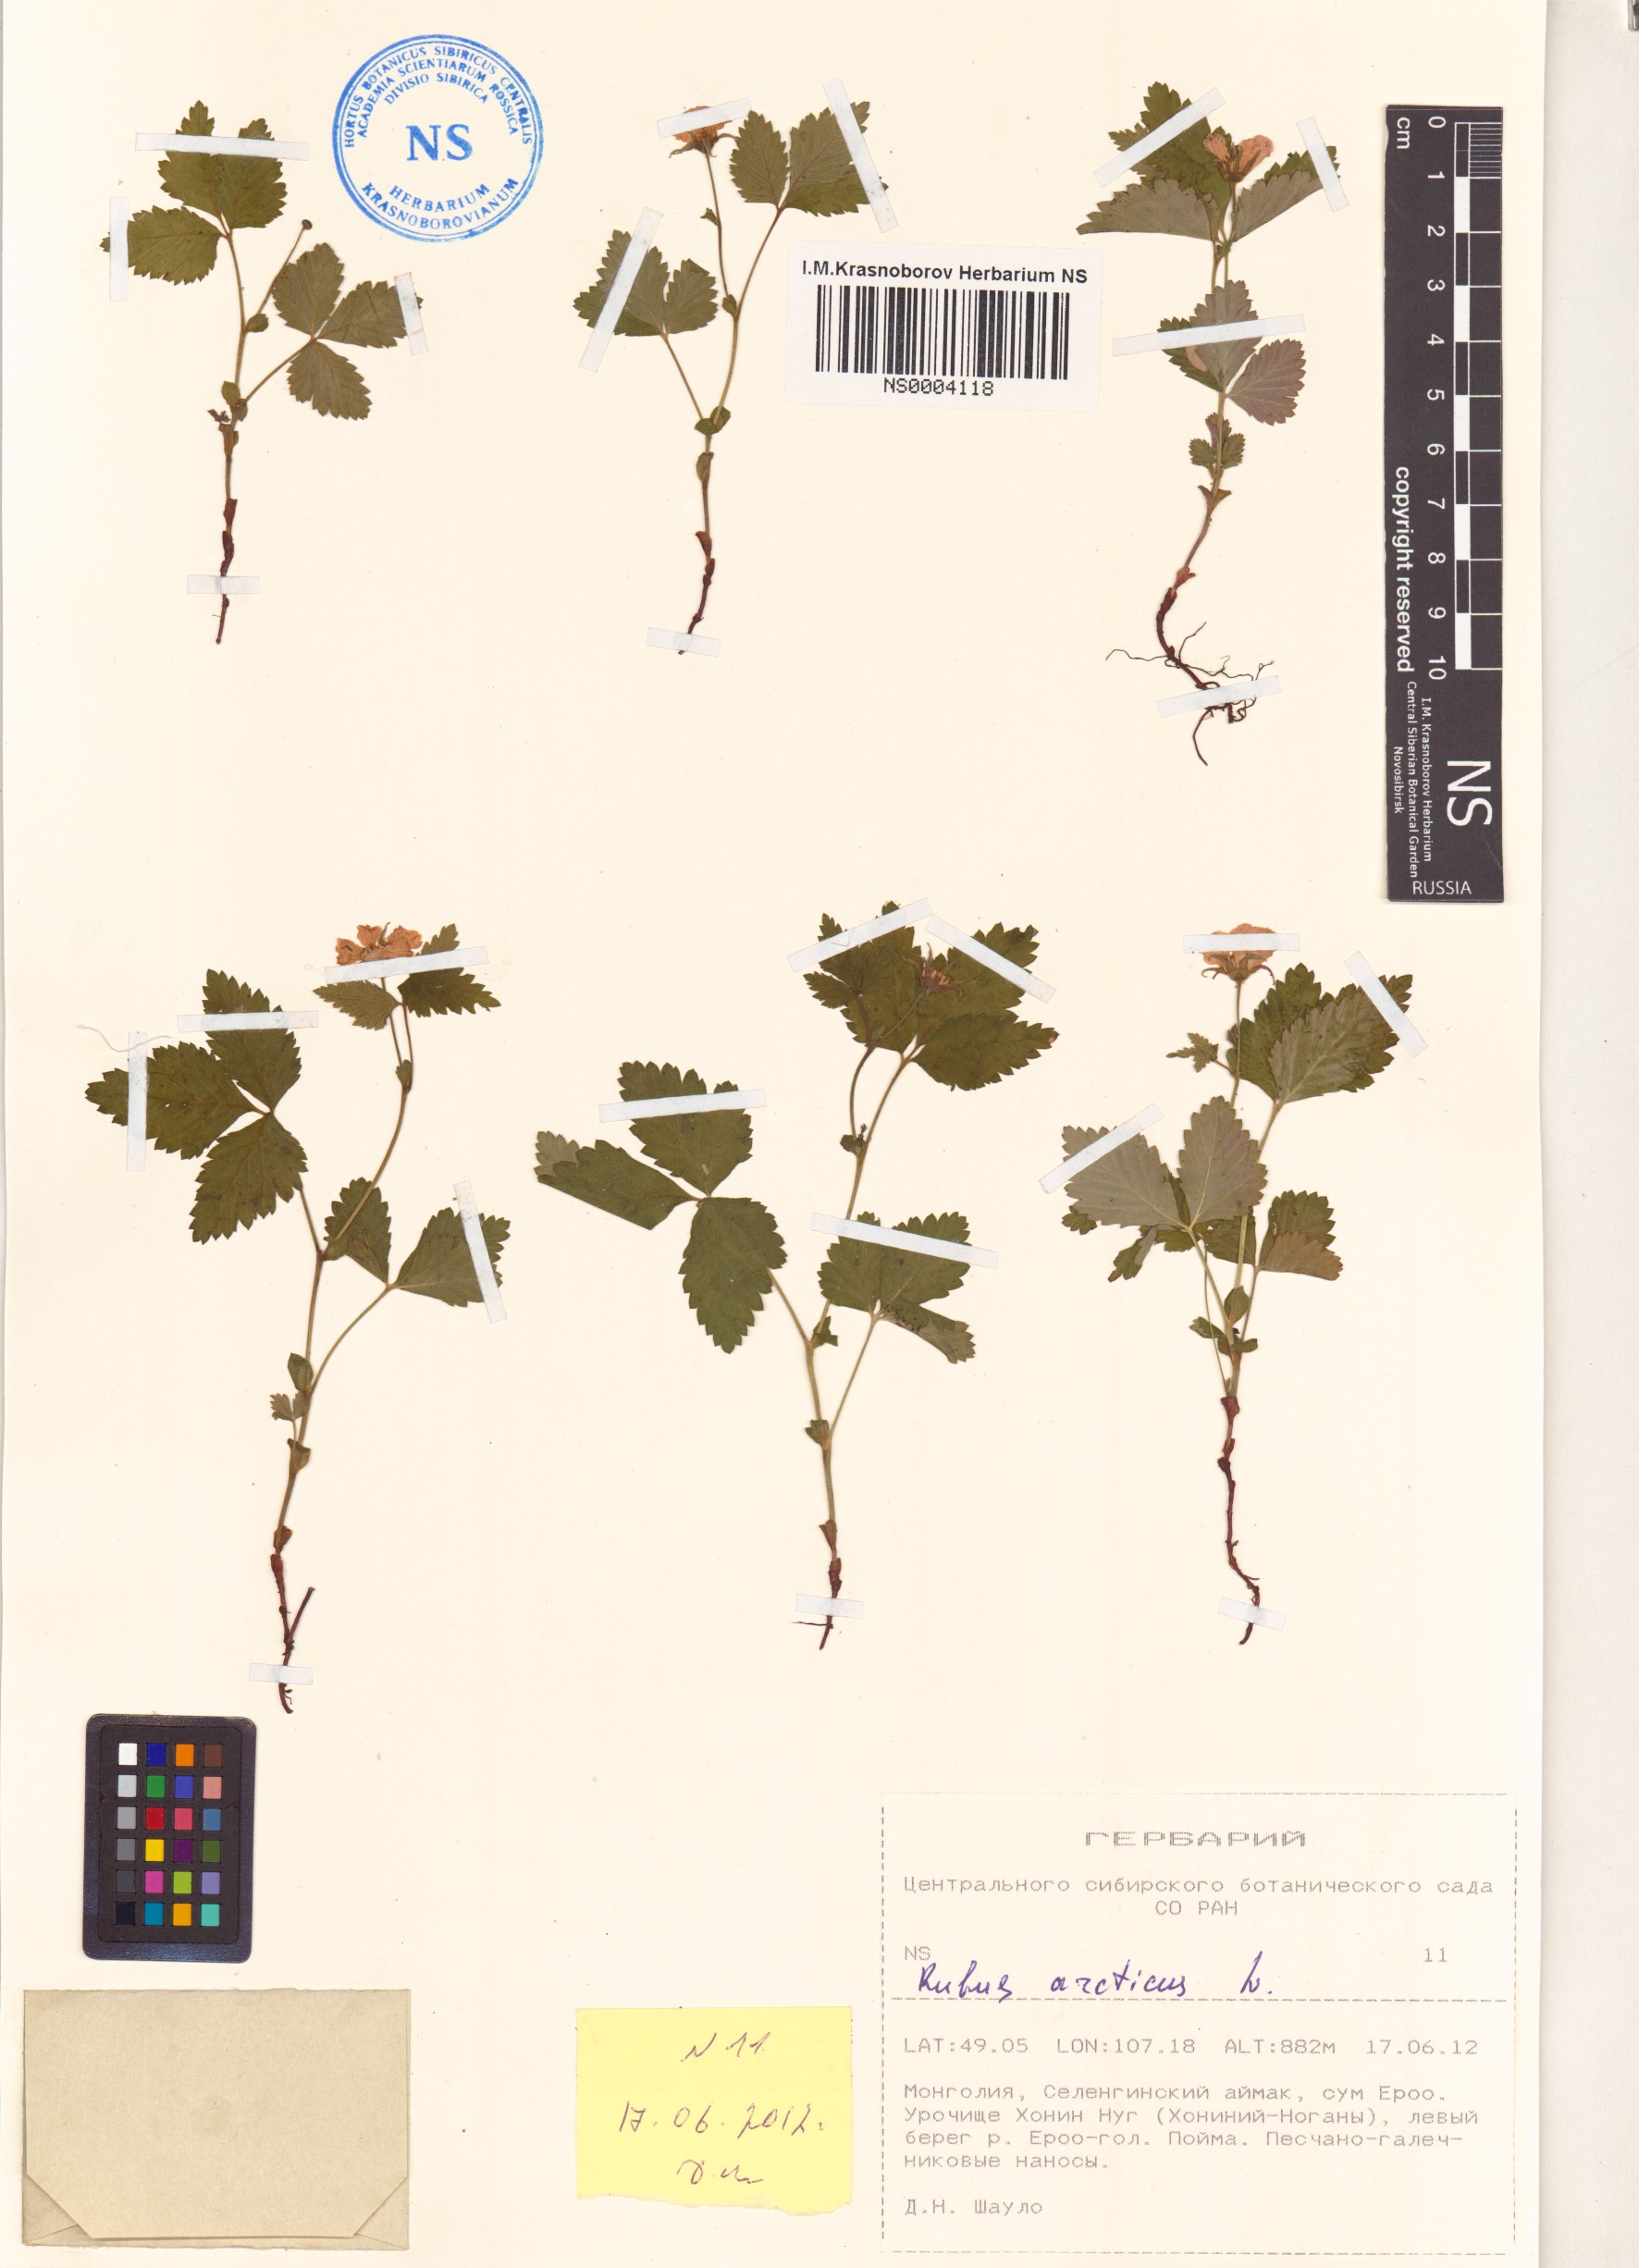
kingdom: Plantae
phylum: Tracheophyta
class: Magnoliopsida
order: Rosales
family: Rosaceae
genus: Rubus
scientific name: Rubus arcticus
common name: Arctic bramble
